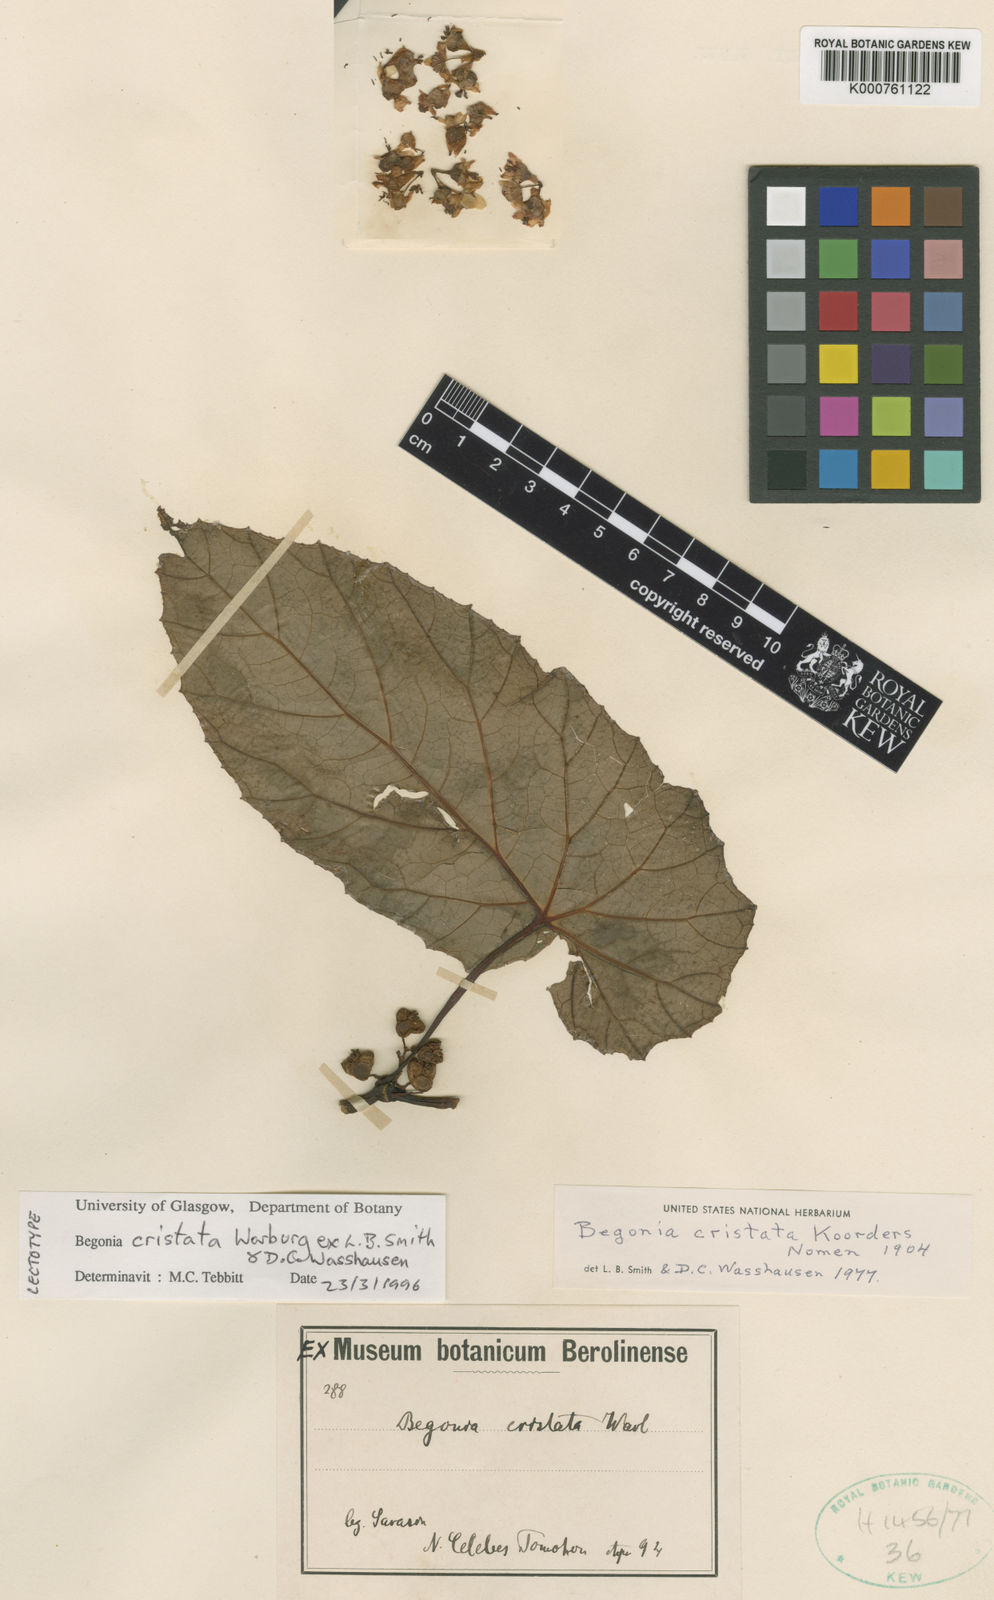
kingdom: Plantae
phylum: Tracheophyta
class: Magnoliopsida
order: Cucurbitales
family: Begoniaceae
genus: Begonia
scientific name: Begonia aptera
